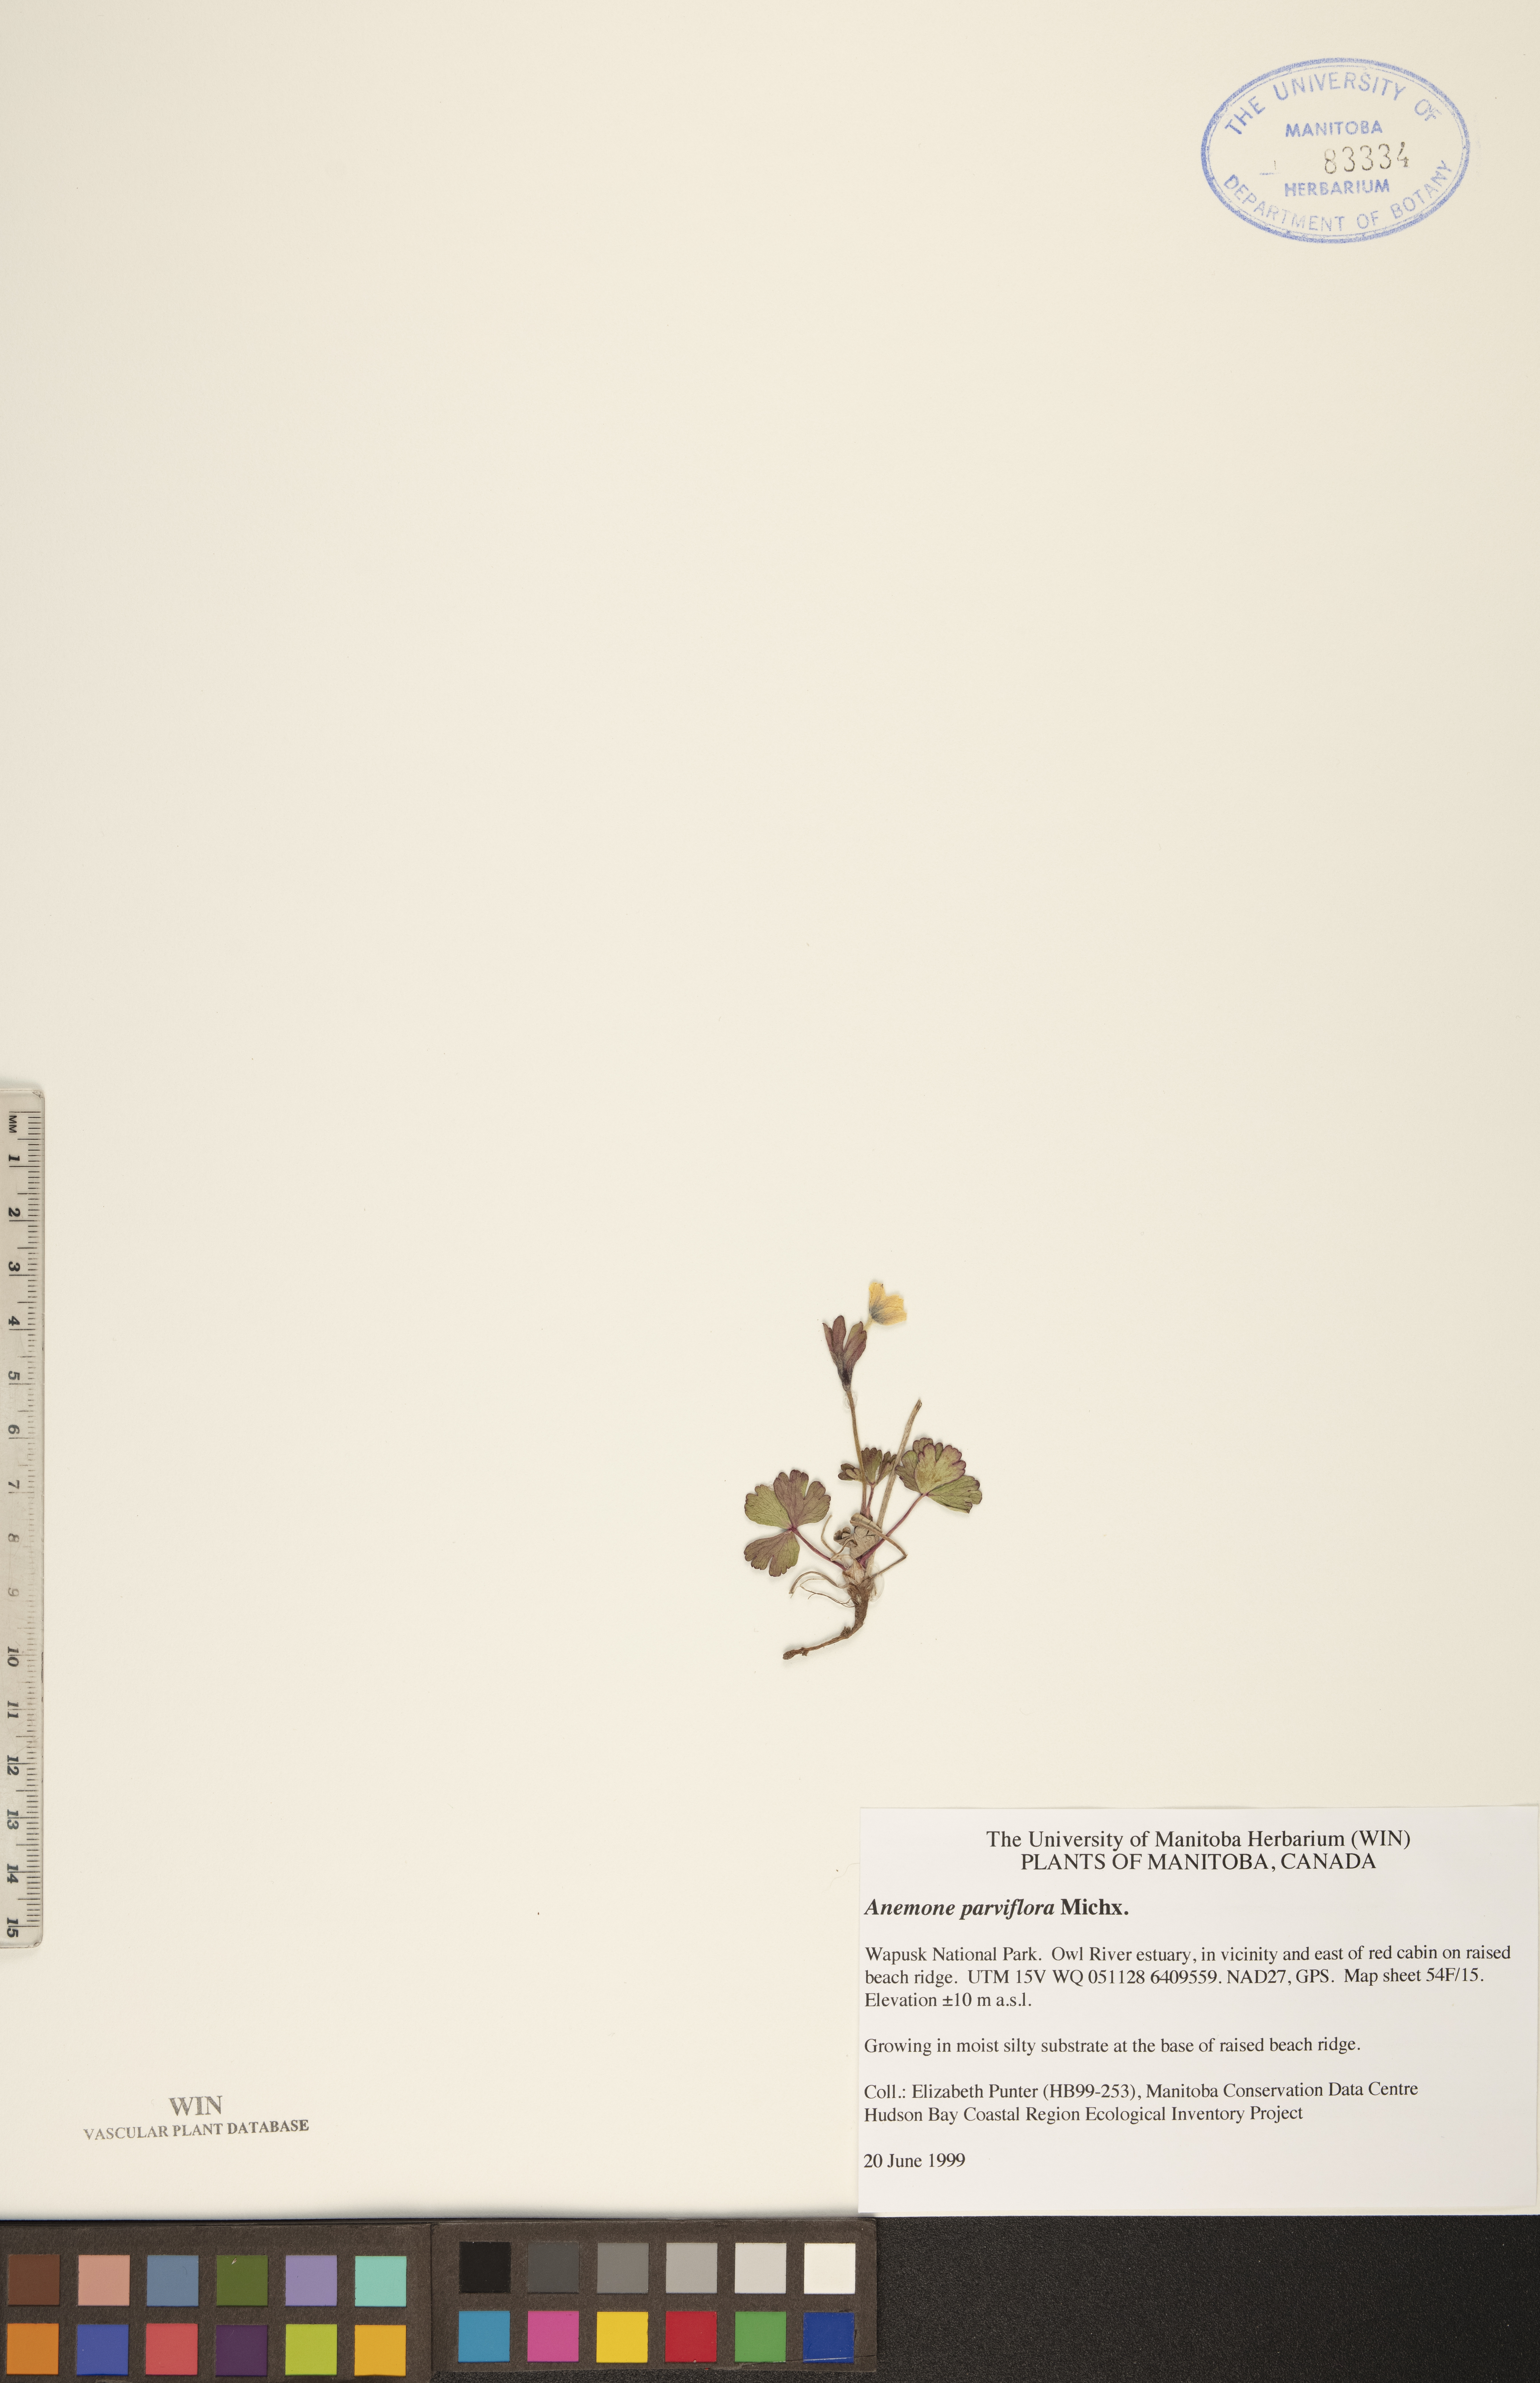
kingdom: Plantae
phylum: Tracheophyta
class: Magnoliopsida
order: Ranunculales
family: Ranunculaceae
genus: Anemone
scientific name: Anemone parviflora
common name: Northern anemone
